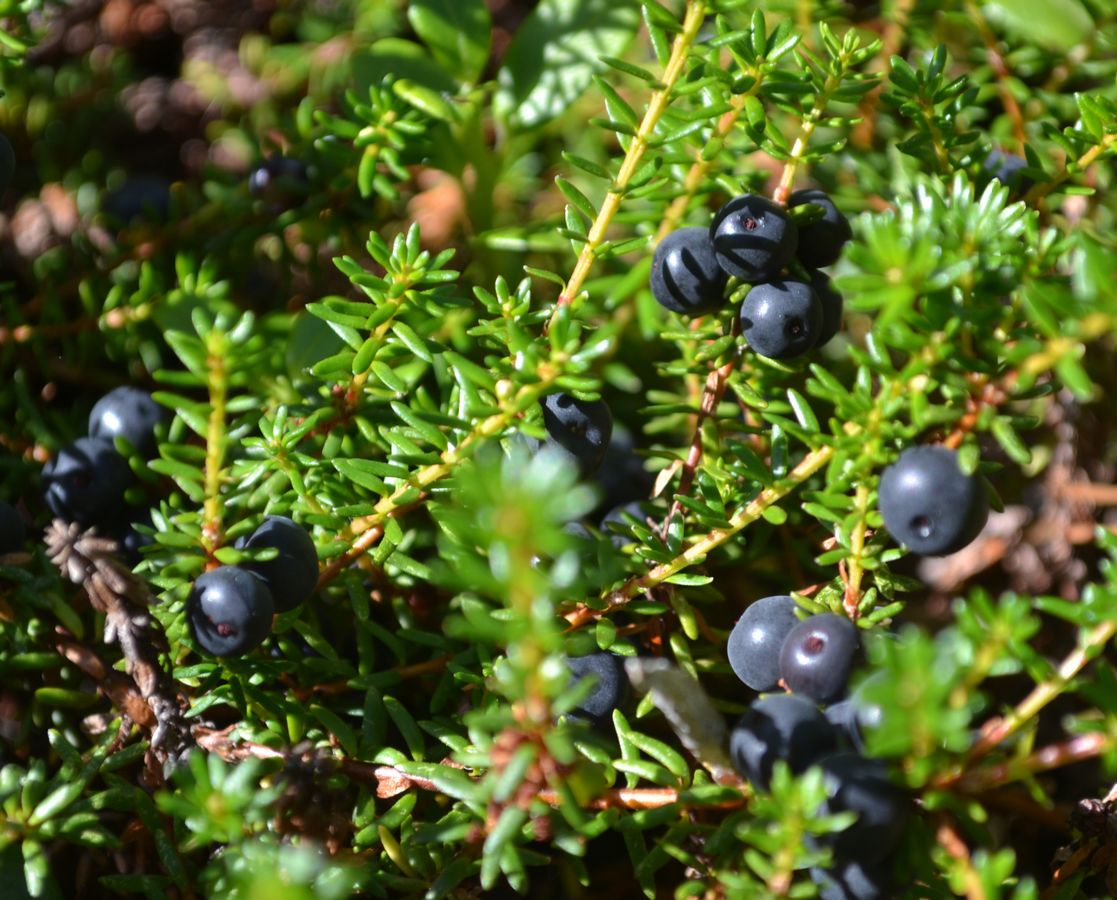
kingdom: Plantae
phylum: Tracheophyta
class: Magnoliopsida
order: Ericales
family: Ericaceae
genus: Empetrum
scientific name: Empetrum hermaphroditum
